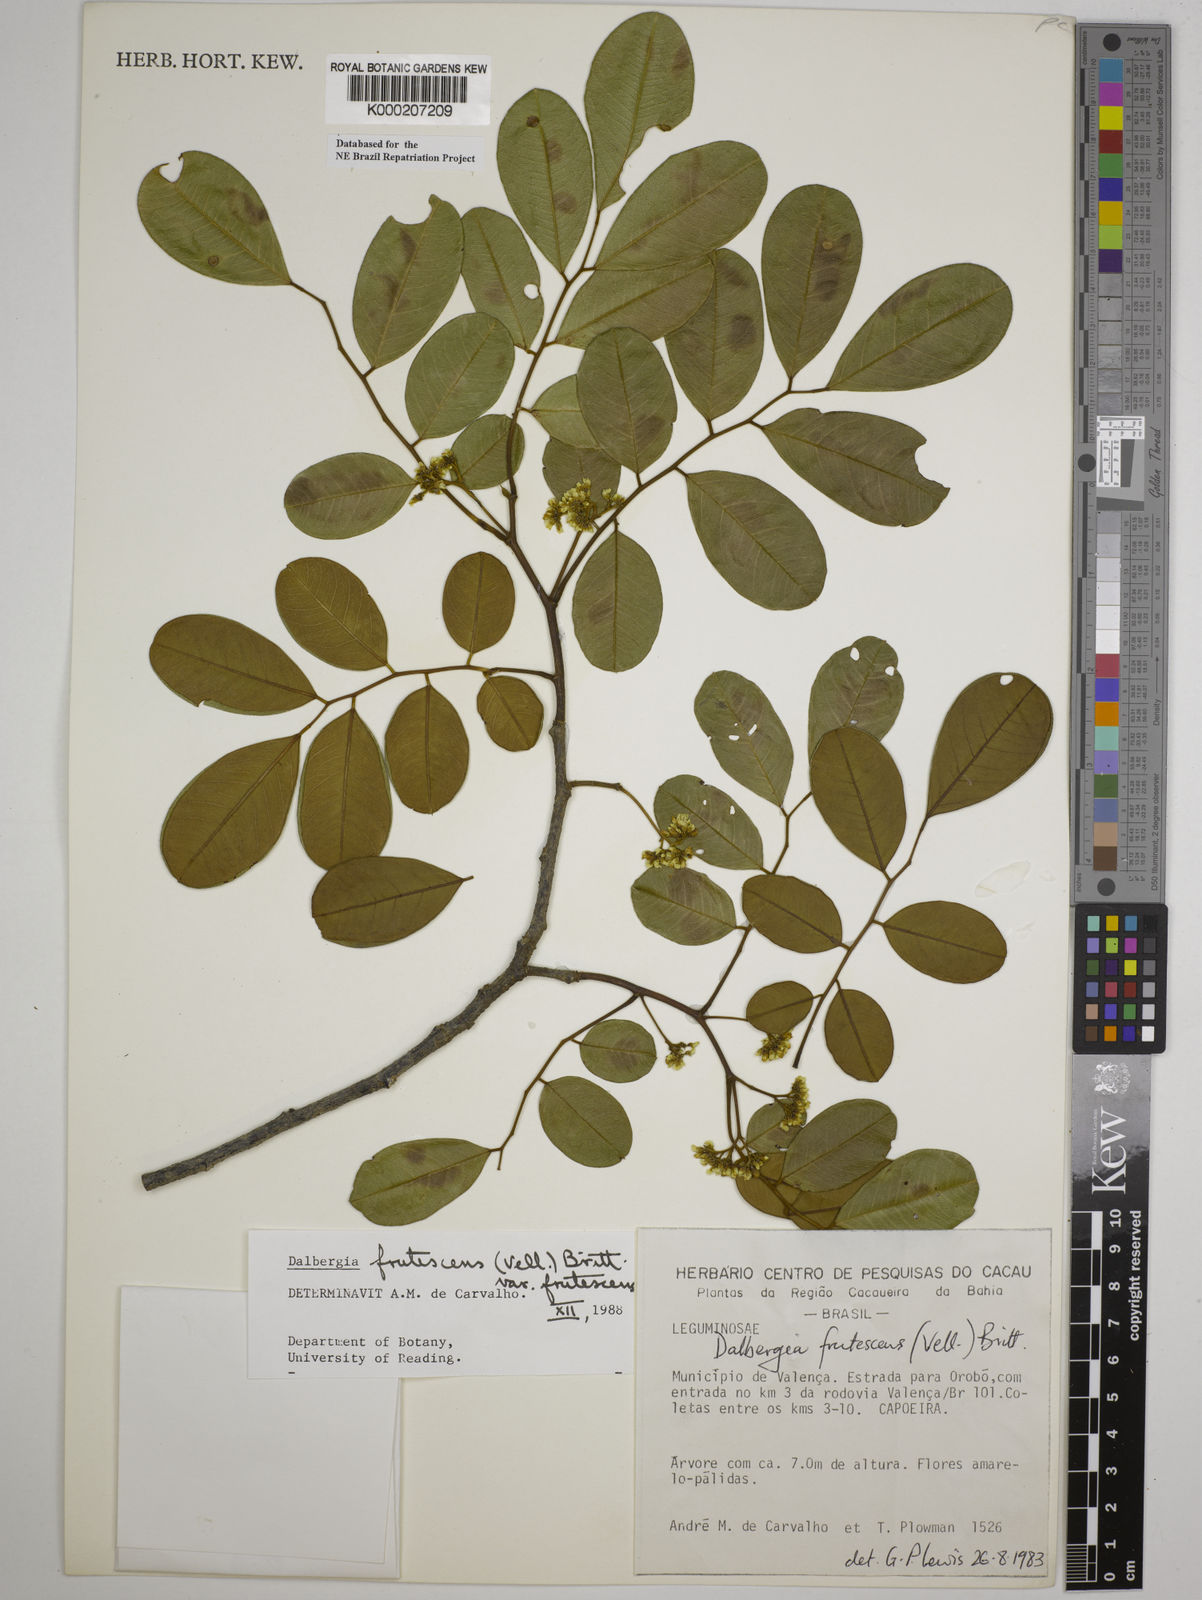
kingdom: Plantae
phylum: Tracheophyta
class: Magnoliopsida
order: Fabales
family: Fabaceae
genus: Dalbergia
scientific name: Dalbergia frutescens
